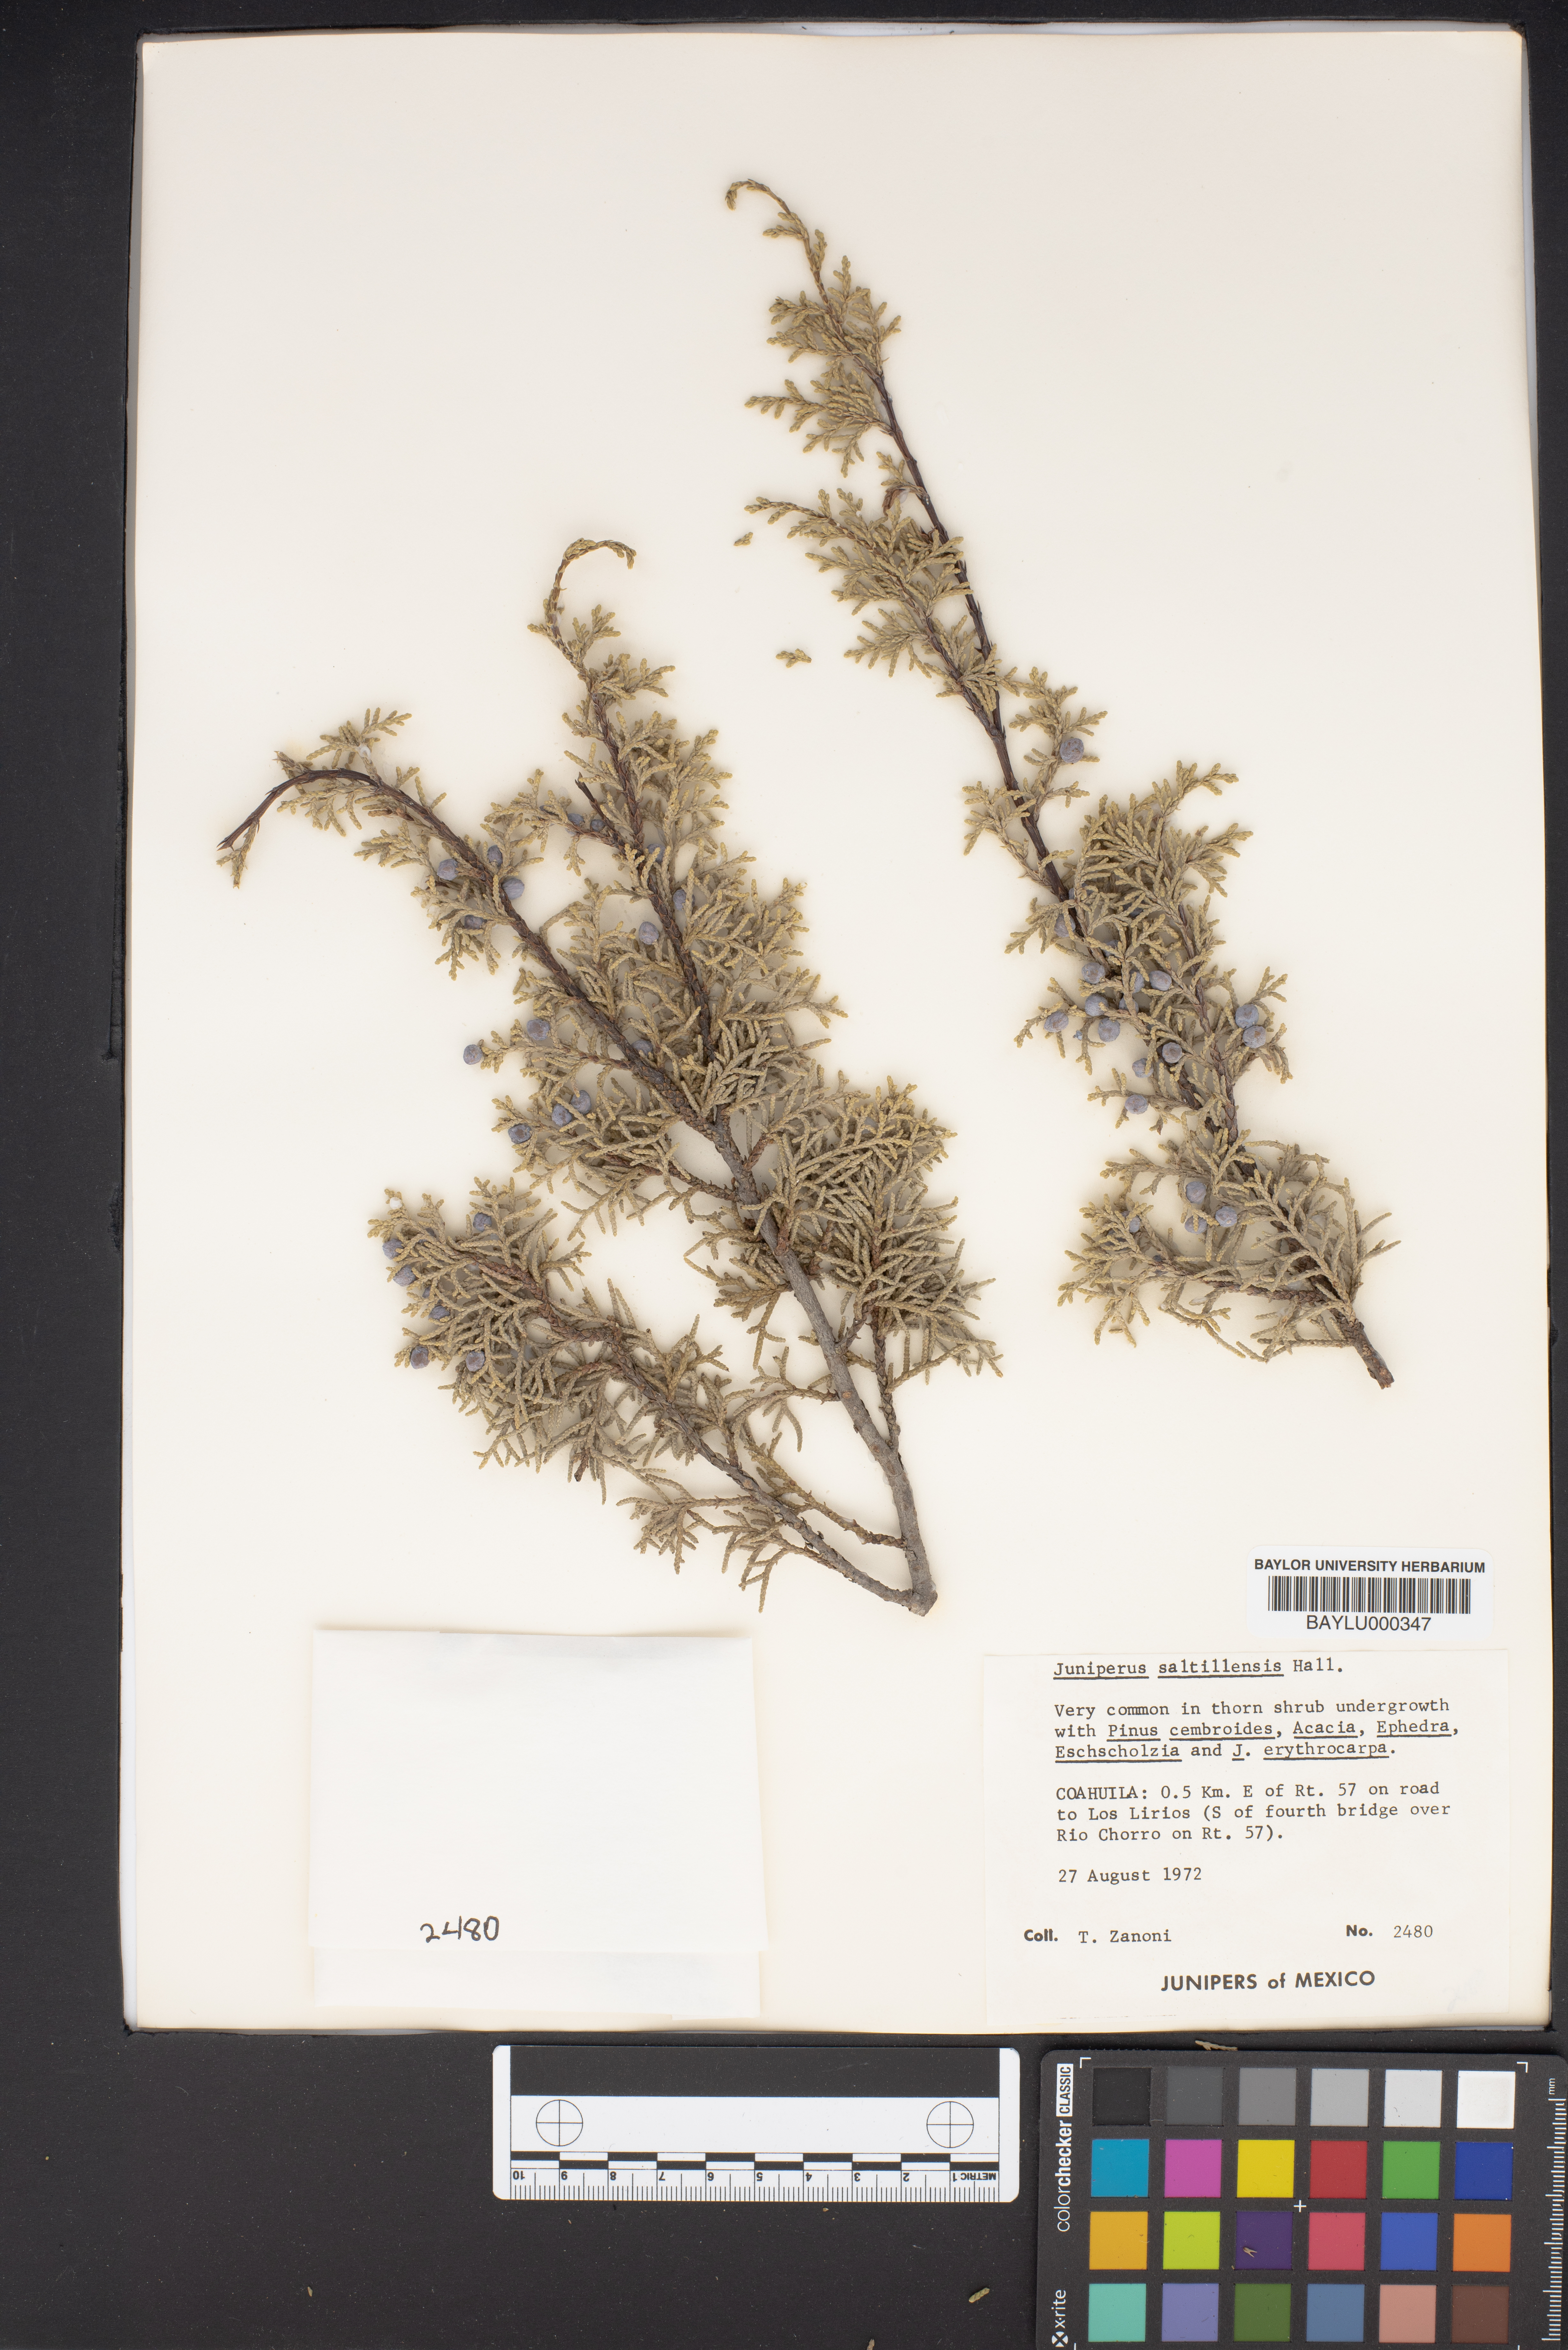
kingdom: Plantae
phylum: Tracheophyta
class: Pinopsida
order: Pinales
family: Cupressaceae
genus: Juniperus
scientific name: Juniperus saltillensis
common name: Saltillo juniper
